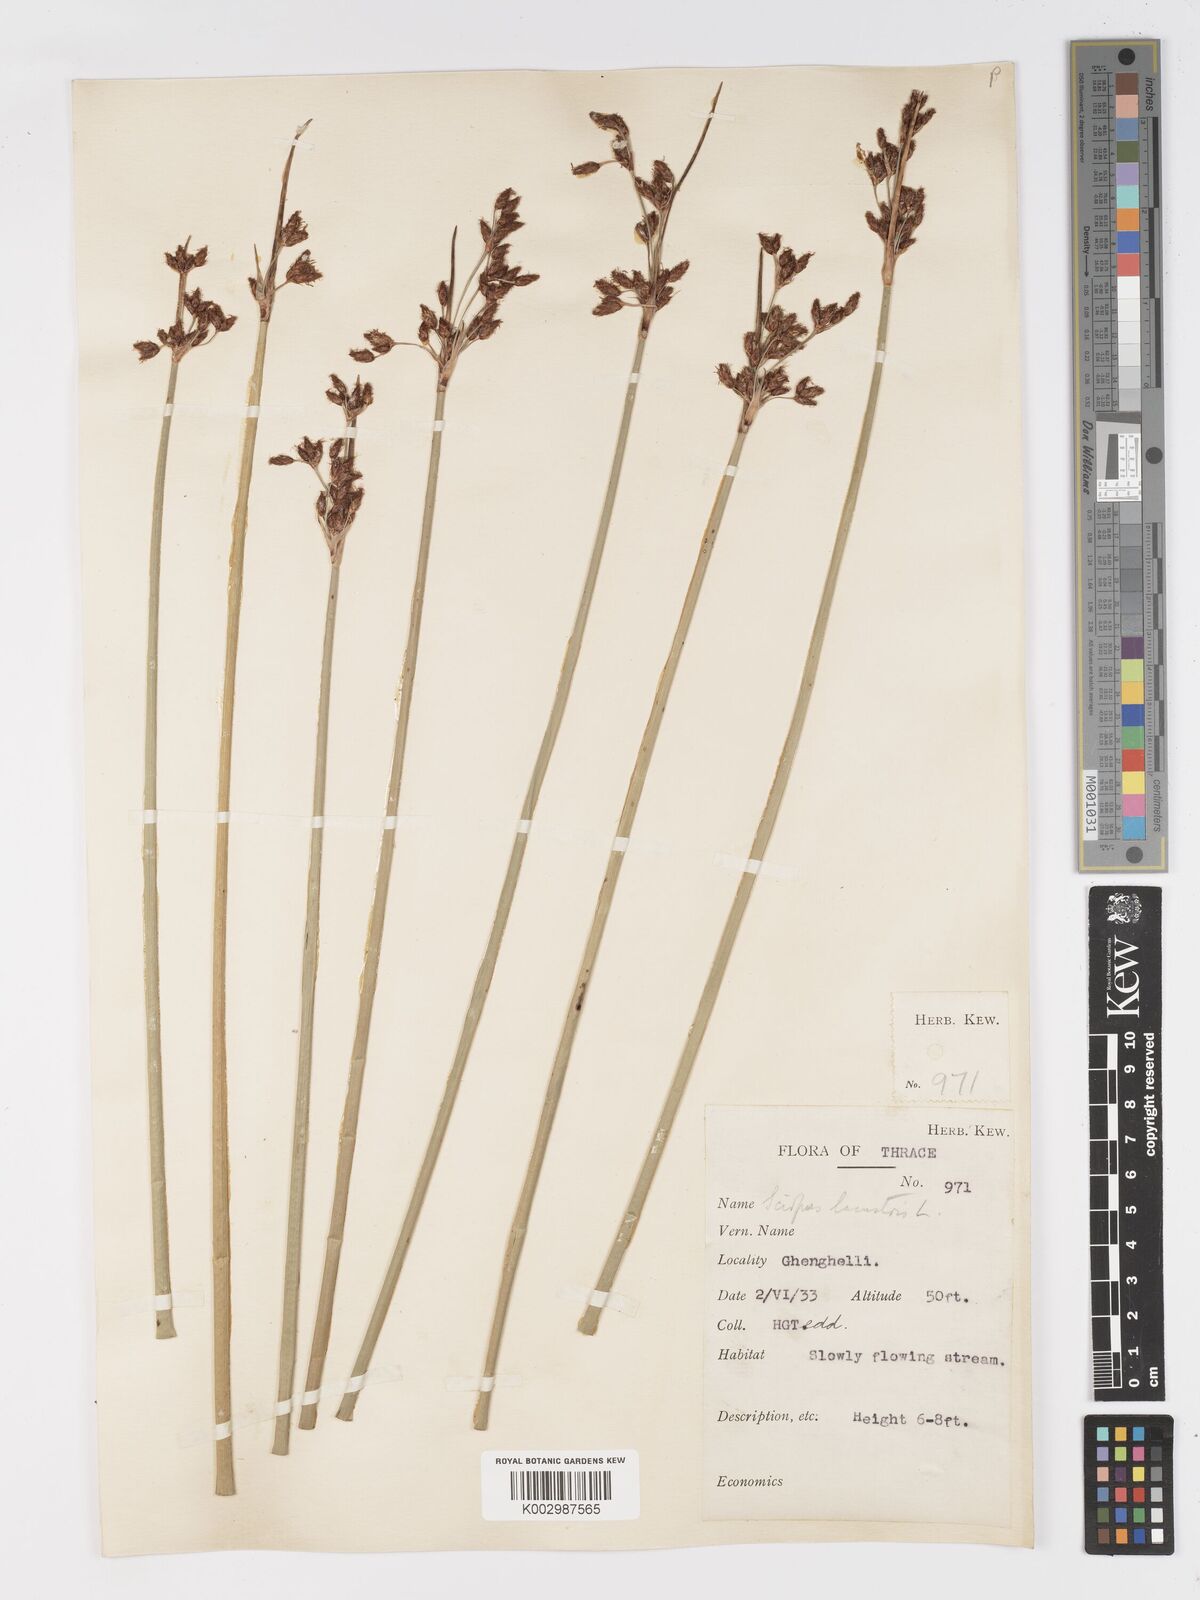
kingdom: Plantae
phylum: Tracheophyta
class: Liliopsida
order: Poales
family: Cyperaceae
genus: Schoenoplectus
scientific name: Schoenoplectus lacustris
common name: Common club-rush
